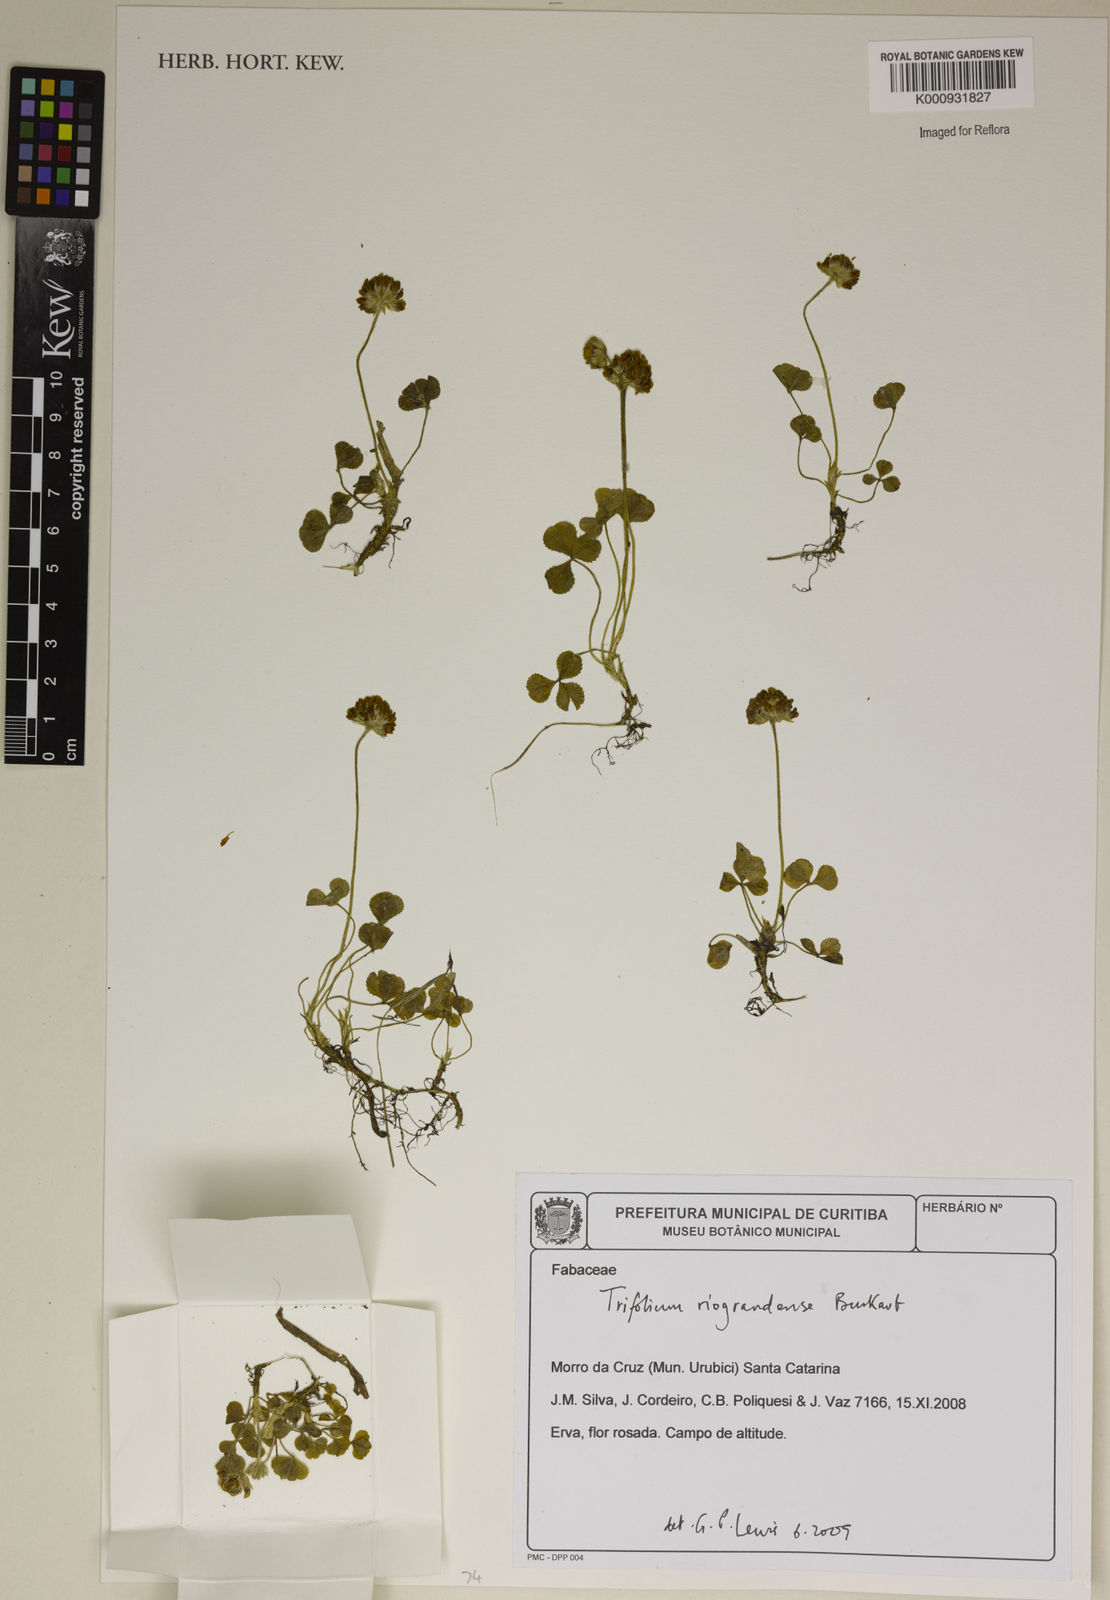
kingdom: Plantae
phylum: Tracheophyta
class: Magnoliopsida
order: Fabales
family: Fabaceae
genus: Trifolium
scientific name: Trifolium riograndense
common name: Rio grande clover
